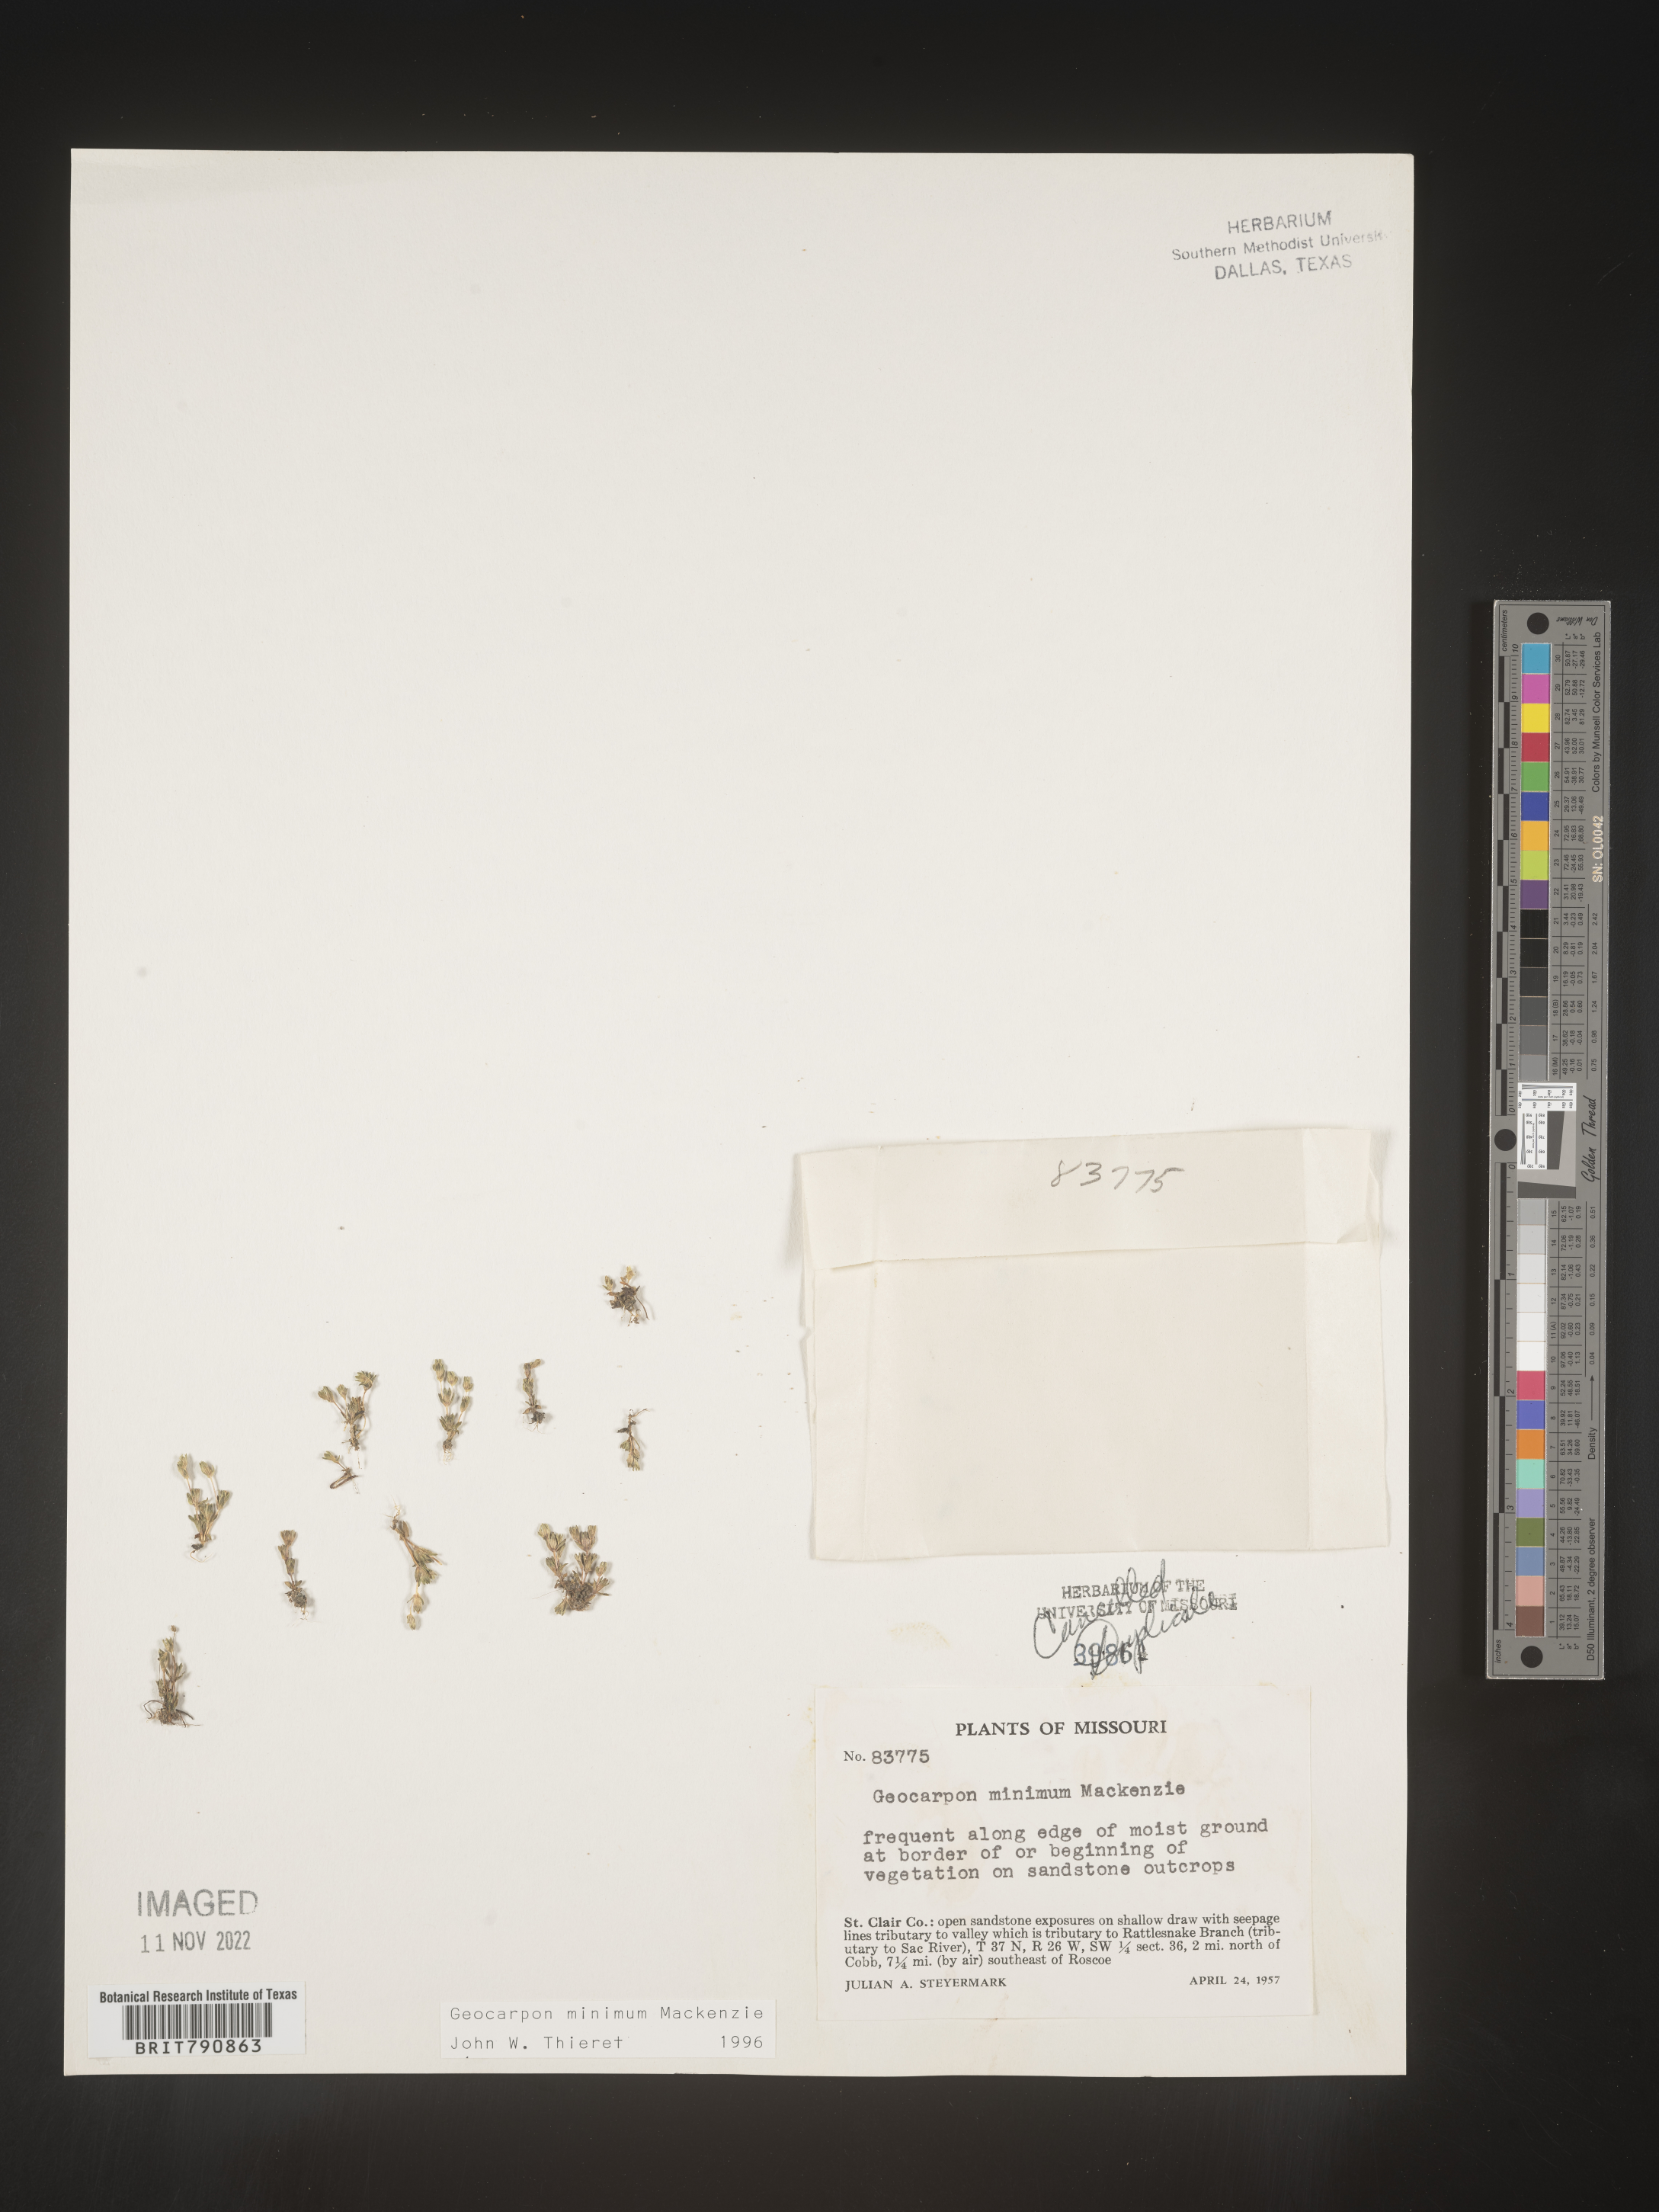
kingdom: Plantae
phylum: Tracheophyta
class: Magnoliopsida
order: Caryophyllales
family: Caryophyllaceae
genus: Geocarpon
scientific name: Geocarpon
